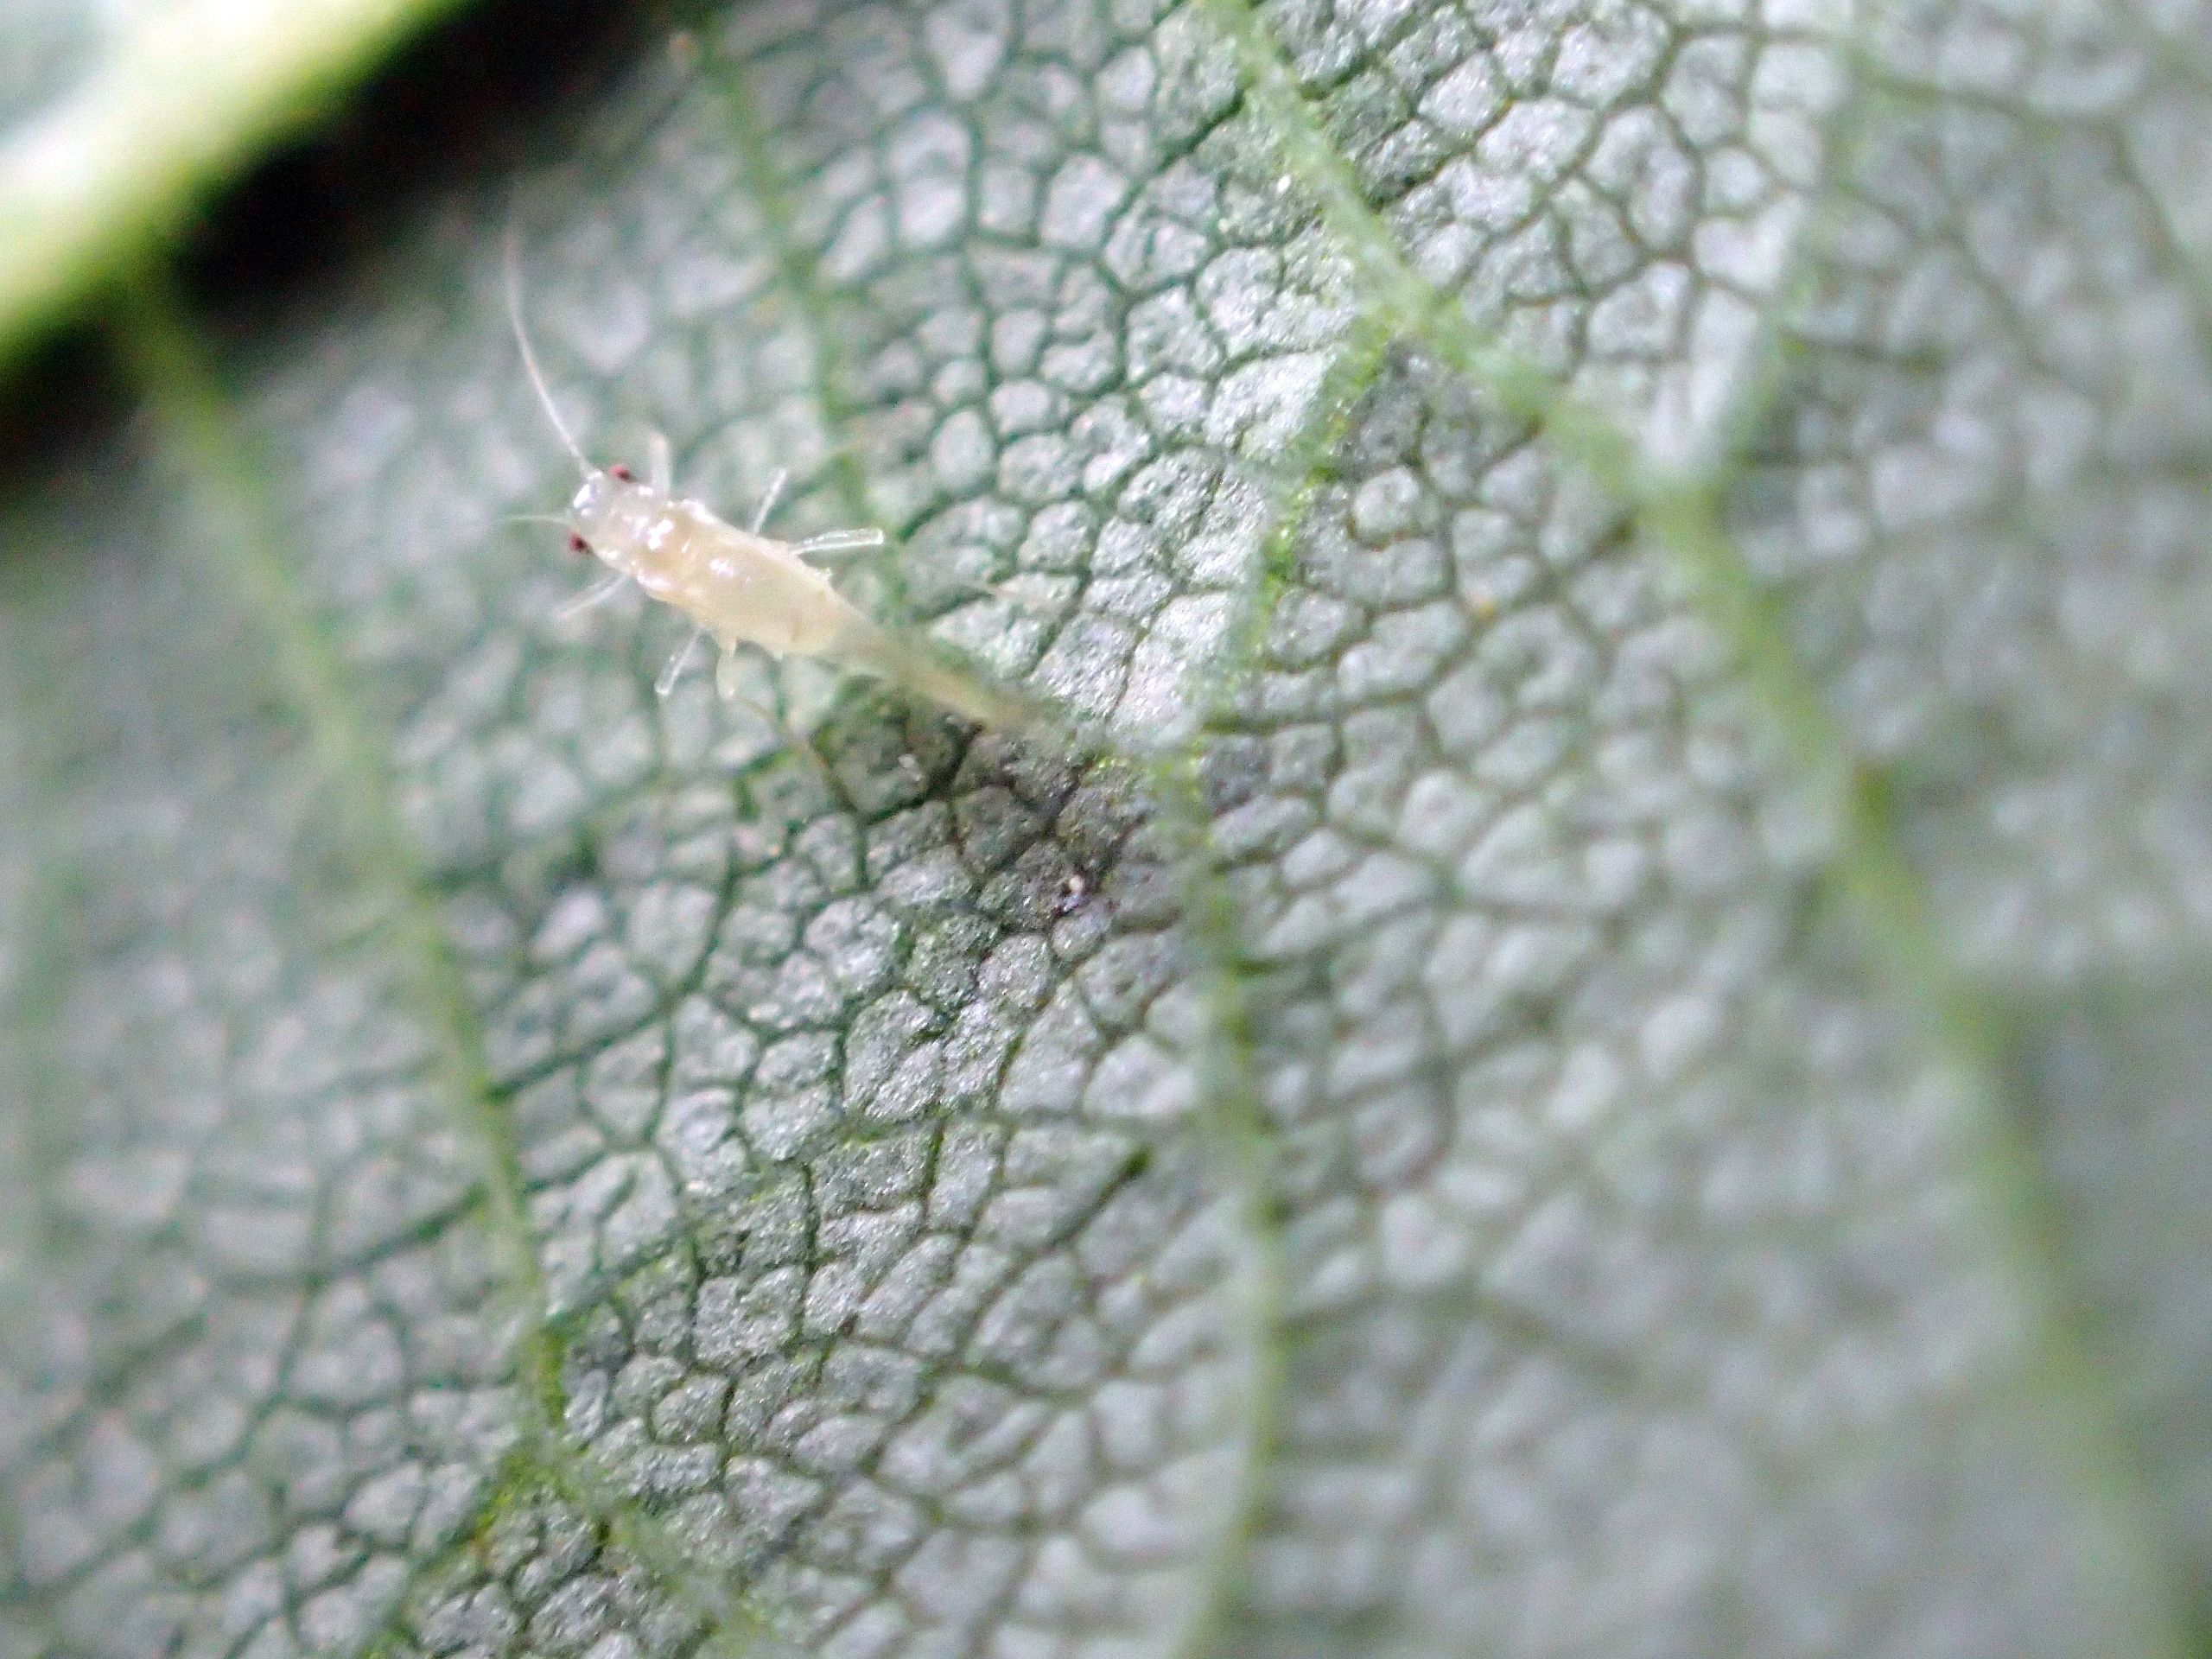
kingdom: Animalia
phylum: Arthropoda
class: Insecta
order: Hemiptera
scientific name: Hemiptera
